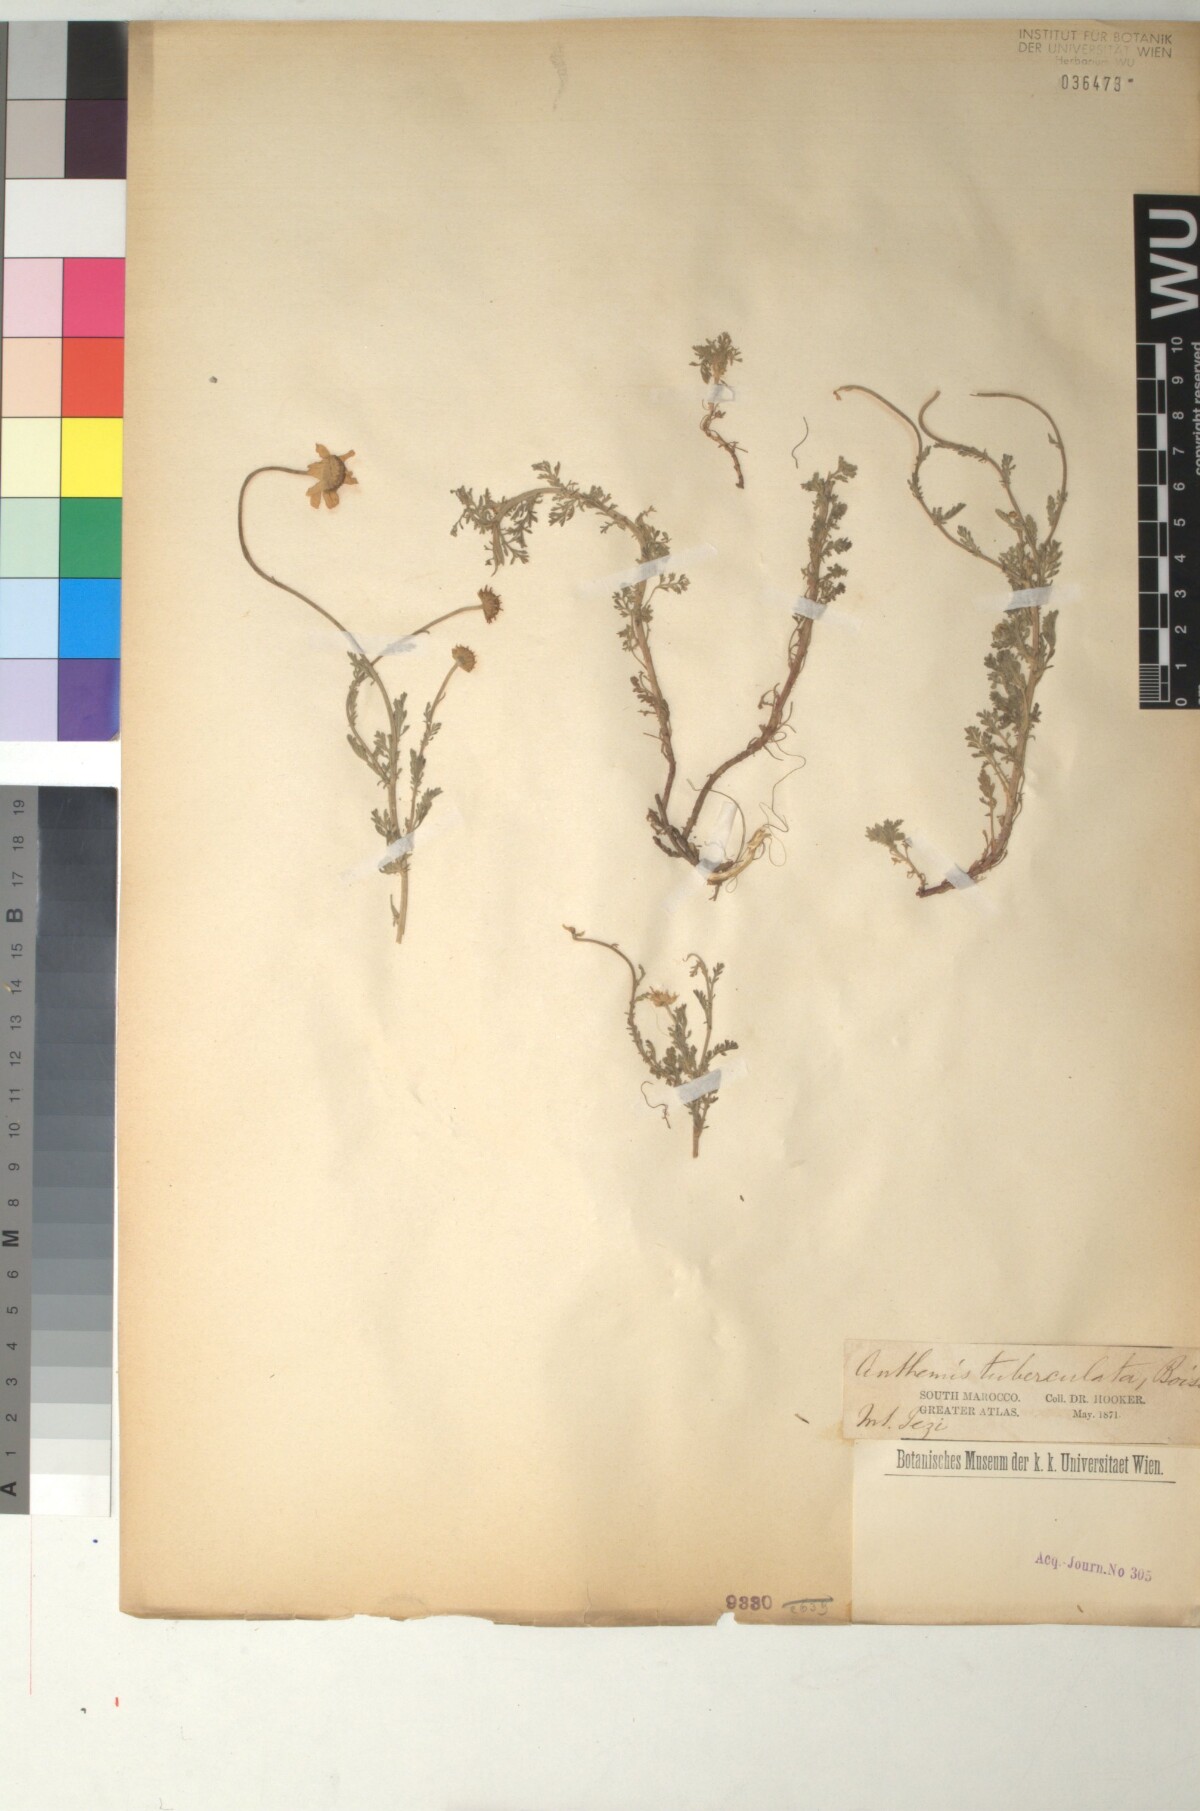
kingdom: Plantae
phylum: Tracheophyta
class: Magnoliopsida
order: Asterales
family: Asteraceae
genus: Anthemis
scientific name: Anthemis pedunculata
